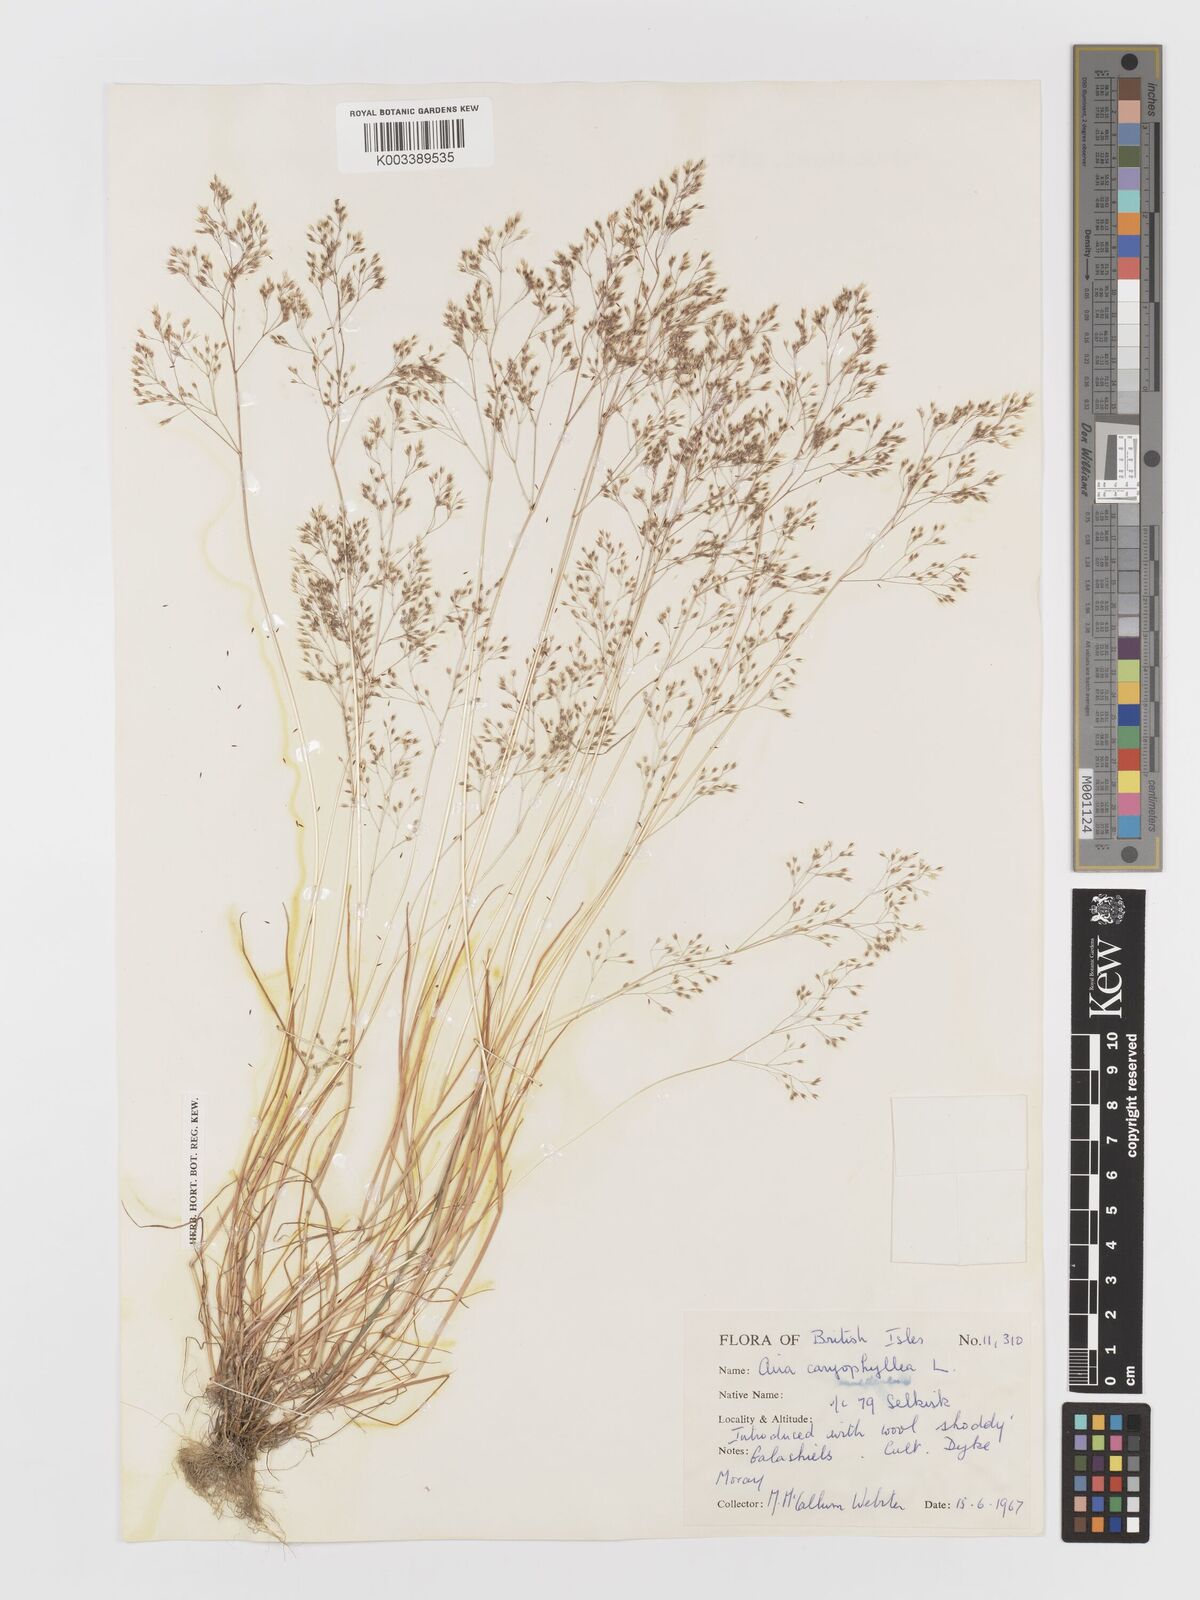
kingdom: Plantae
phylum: Tracheophyta
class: Liliopsida
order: Poales
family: Poaceae
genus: Aira
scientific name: Aira caryophyllea
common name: Silver hairgrass
